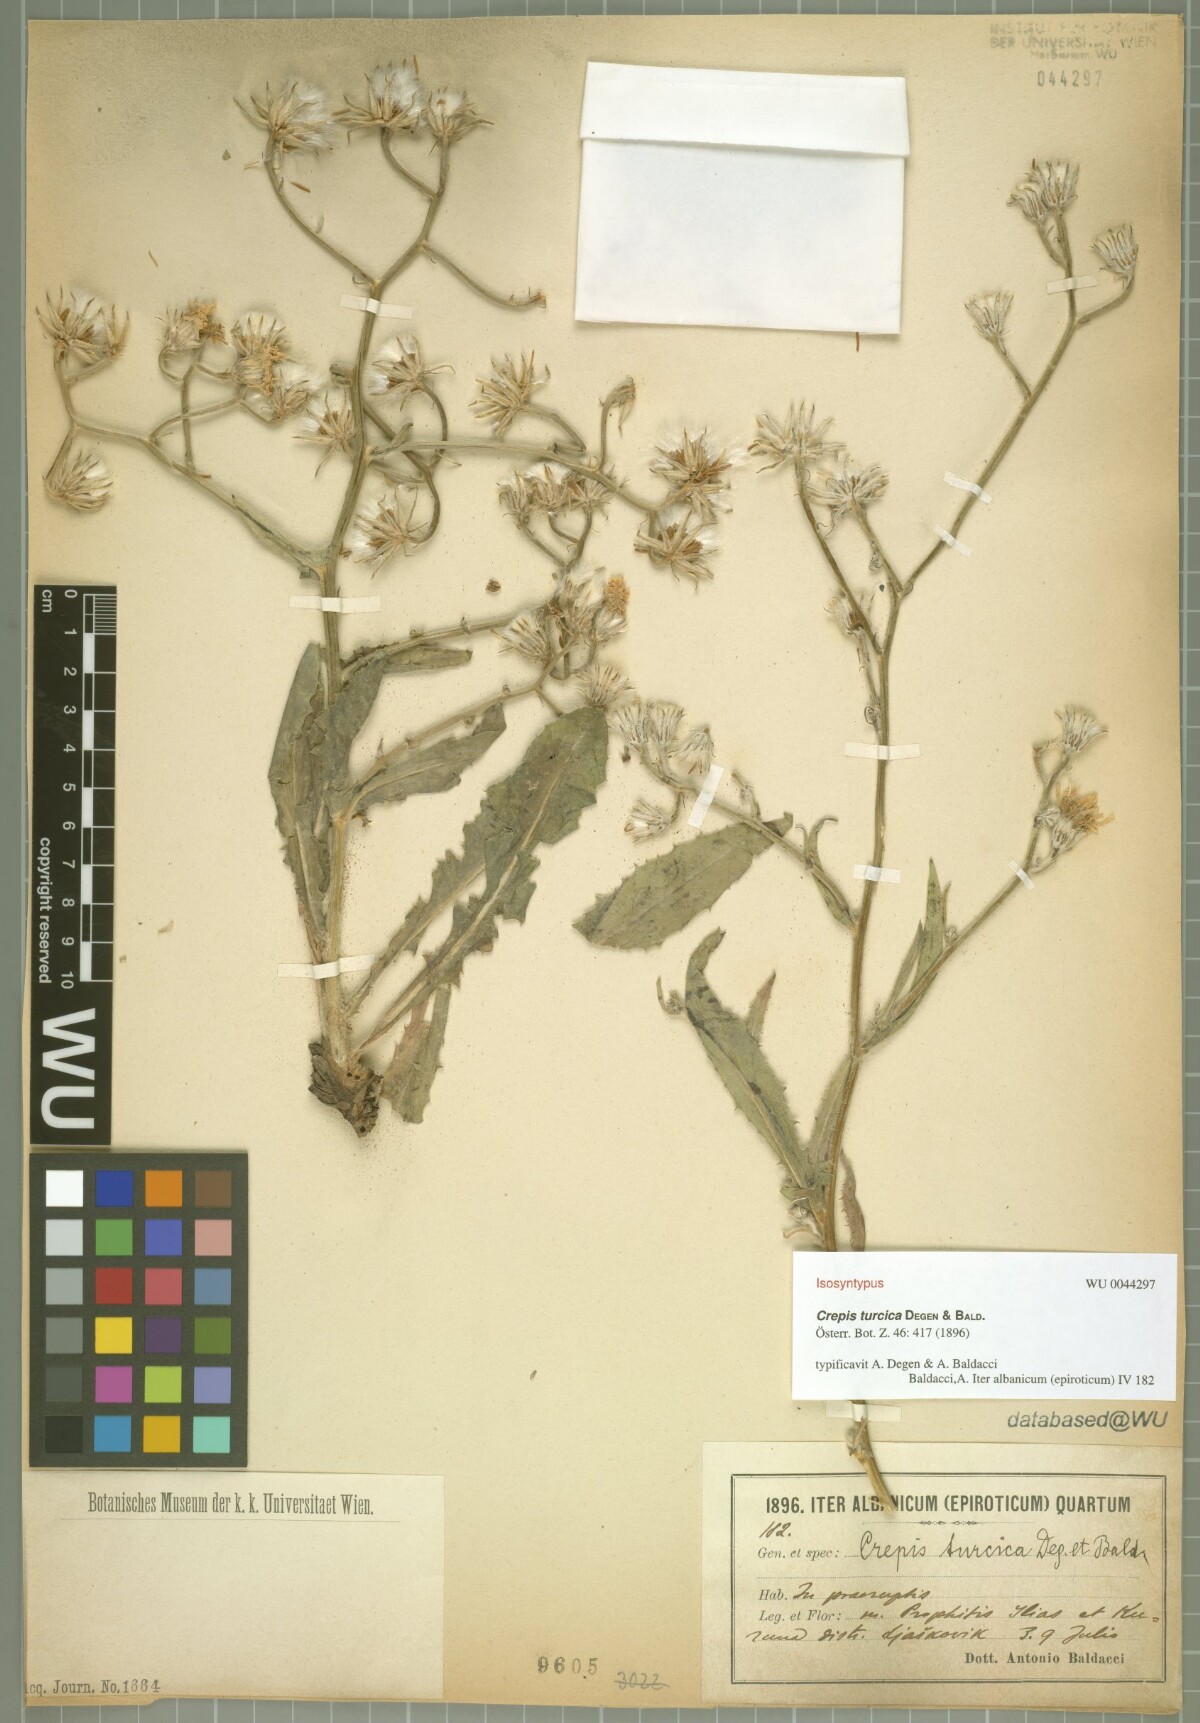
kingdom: Plantae
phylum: Tracheophyta
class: Magnoliopsida
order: Asterales
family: Asteraceae
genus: Crepis
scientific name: Crepis turcica
